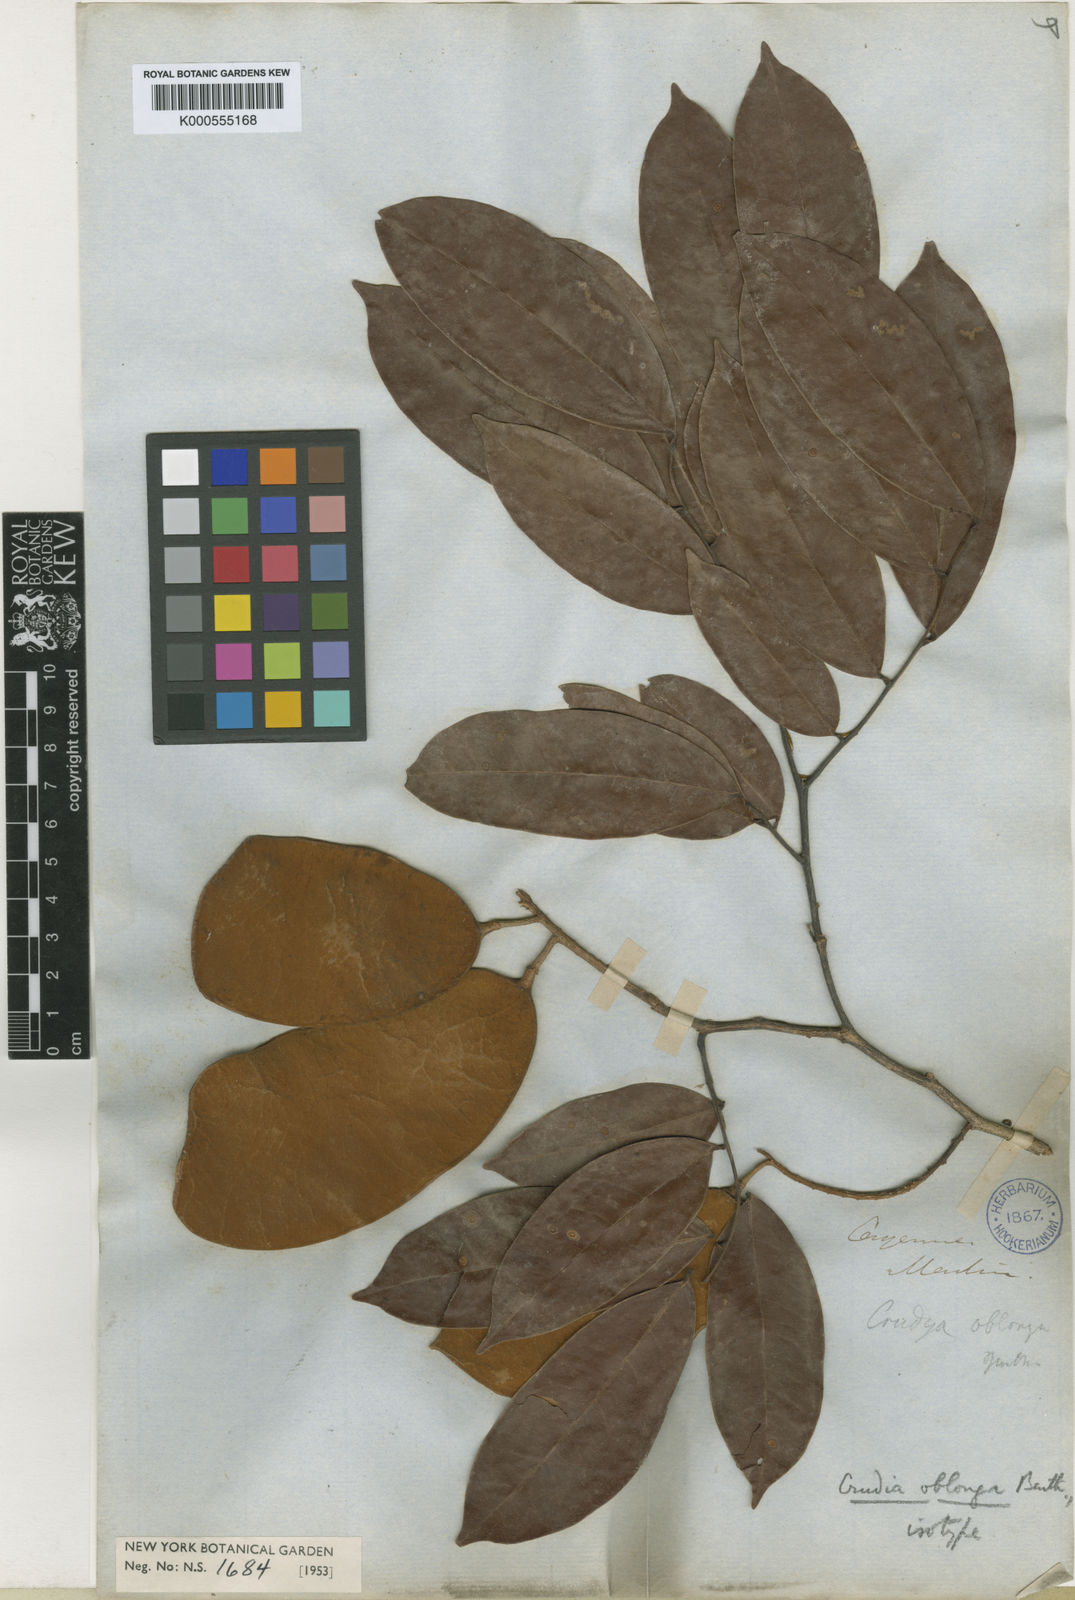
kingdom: Plantae
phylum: Tracheophyta
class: Magnoliopsida
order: Fabales
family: Fabaceae
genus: Crudia
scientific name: Crudia oblonga
